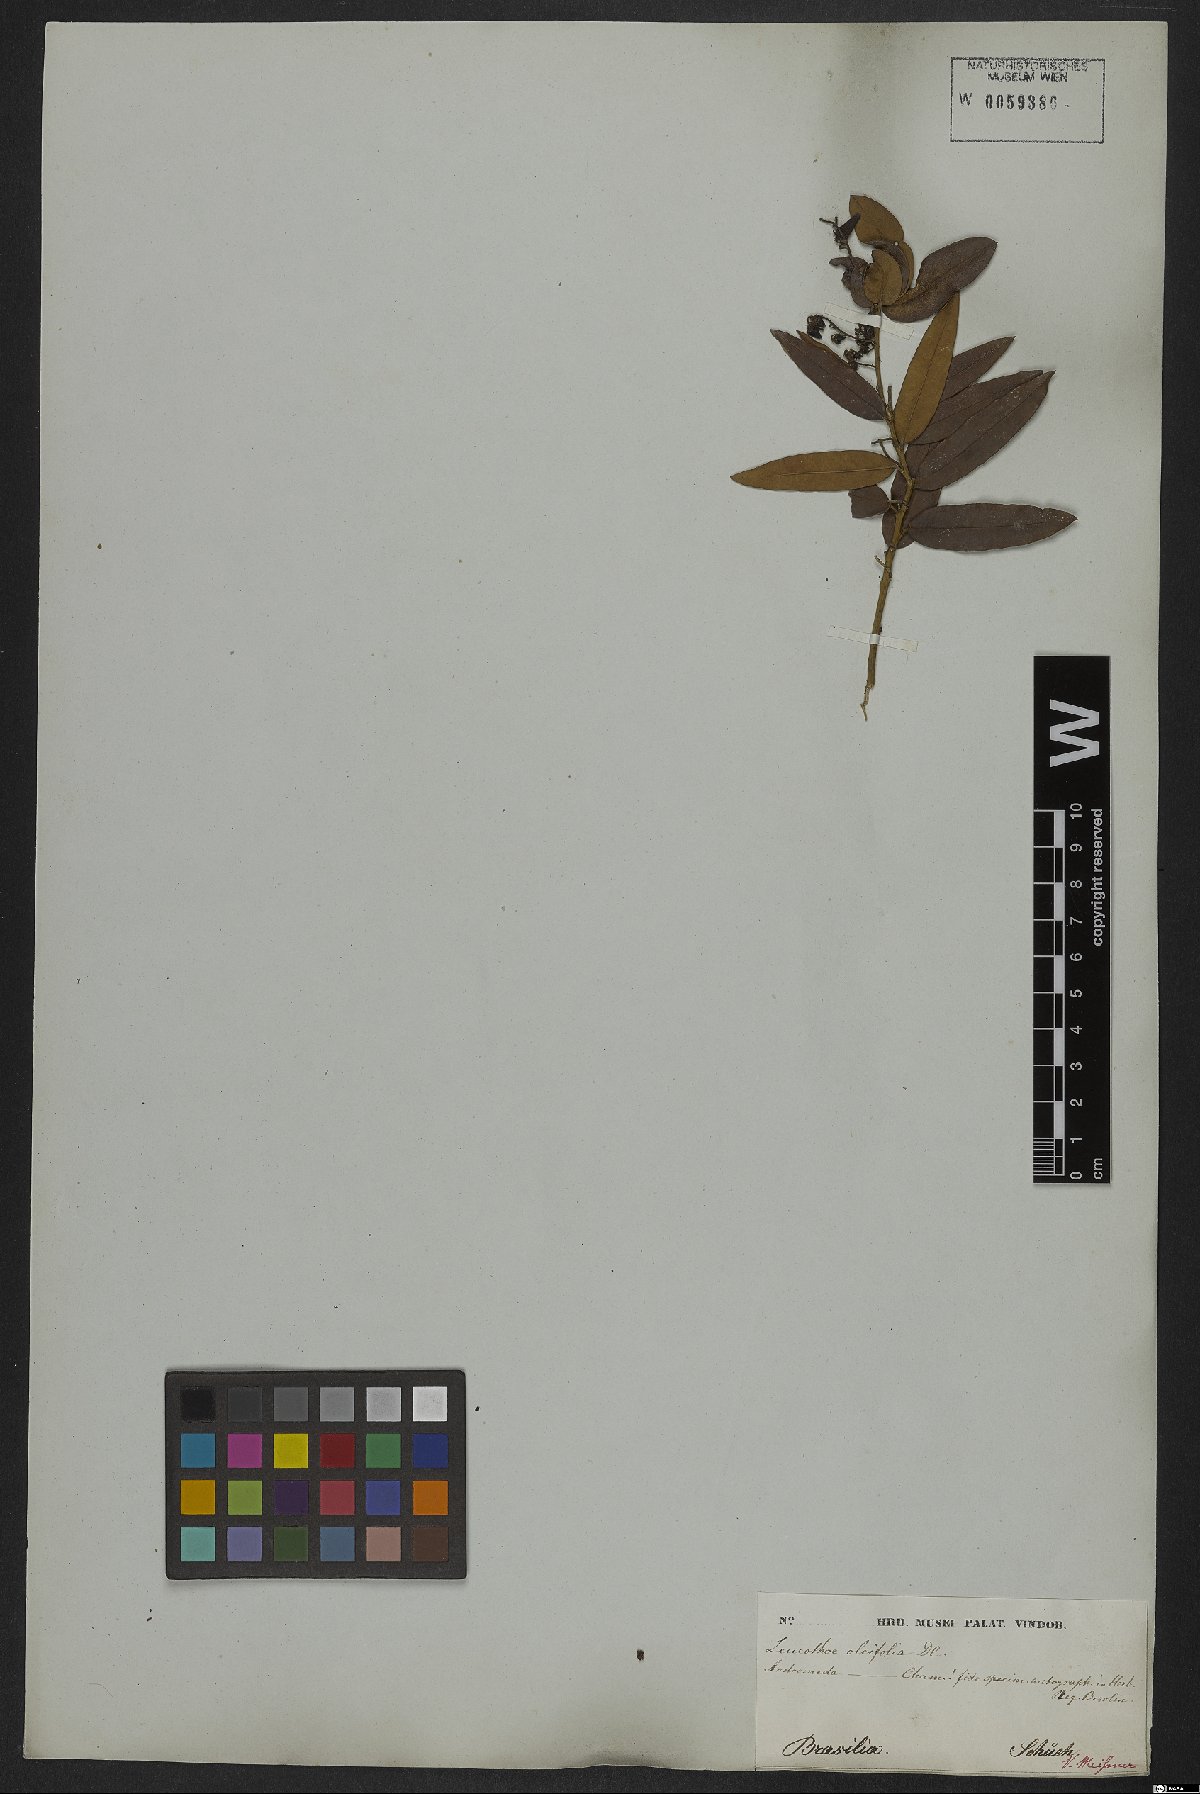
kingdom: Plantae
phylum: Tracheophyta
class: Magnoliopsida
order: Ericales
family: Ericaceae
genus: Agarista
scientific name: Agarista oleifolia
